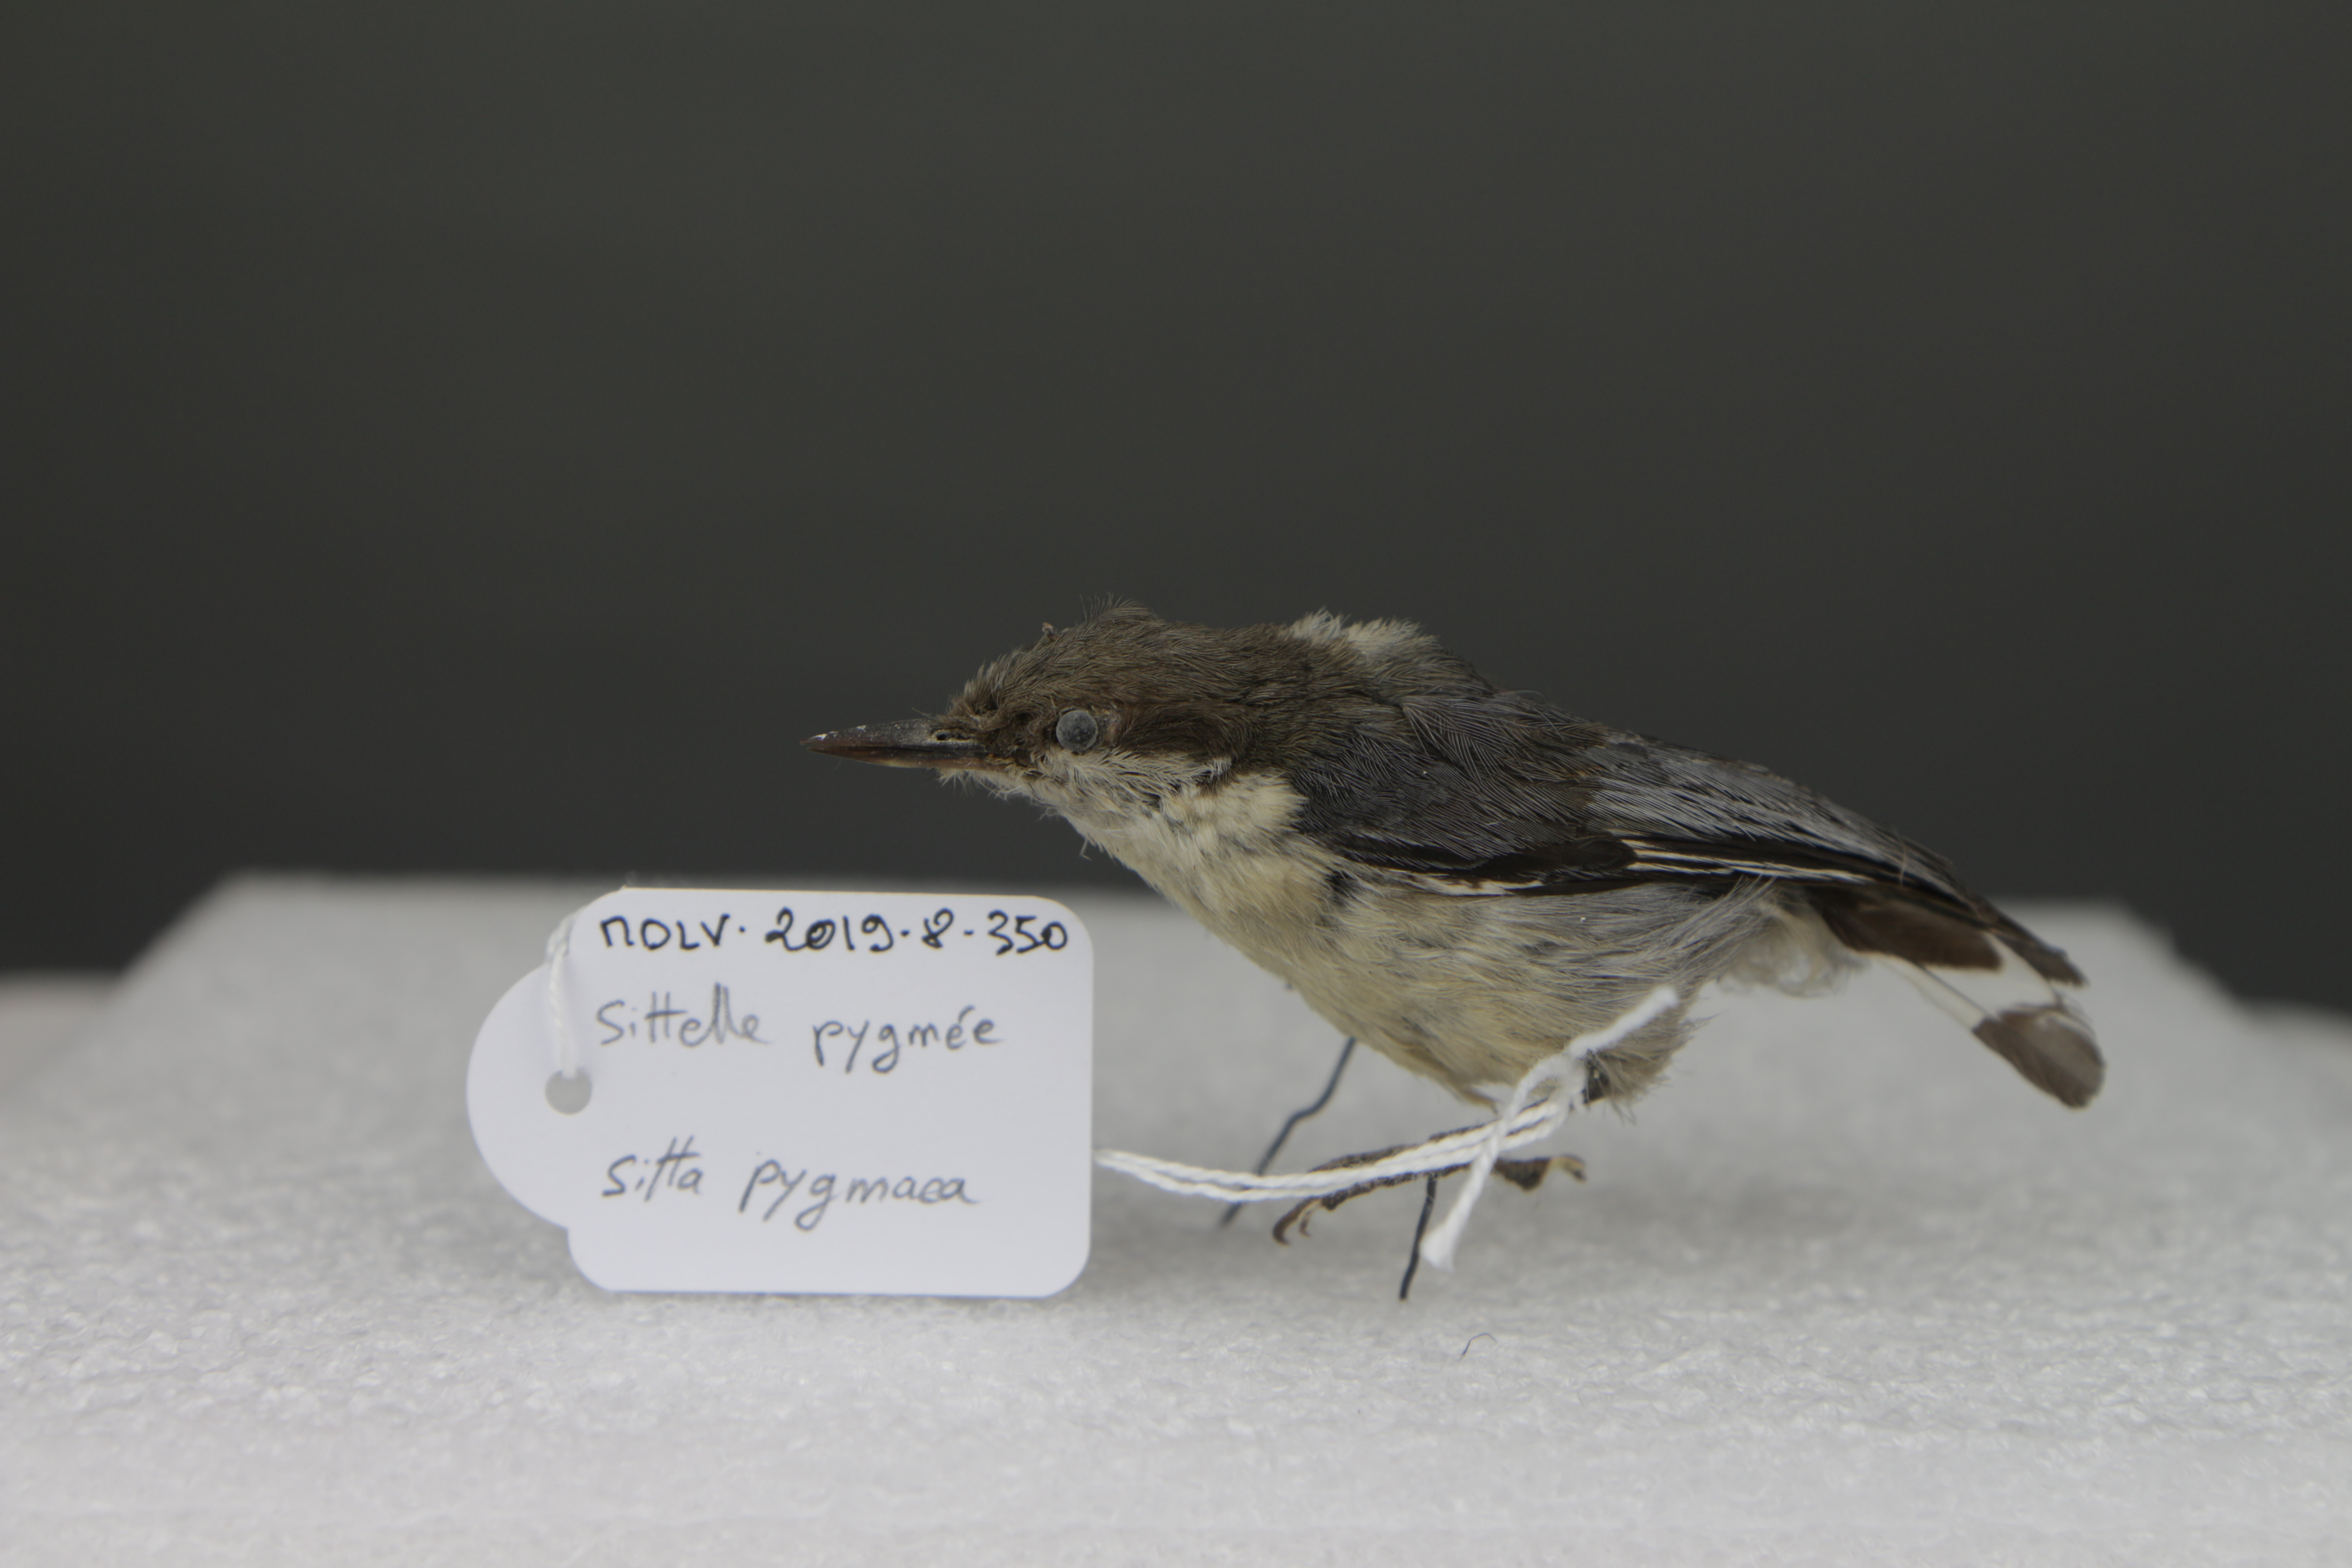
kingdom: Animalia
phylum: Chordata
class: Aves
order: Passeriformes
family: Sittidae
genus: Sitta
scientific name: Sitta pygmaea
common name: Pygmy nuthatch
